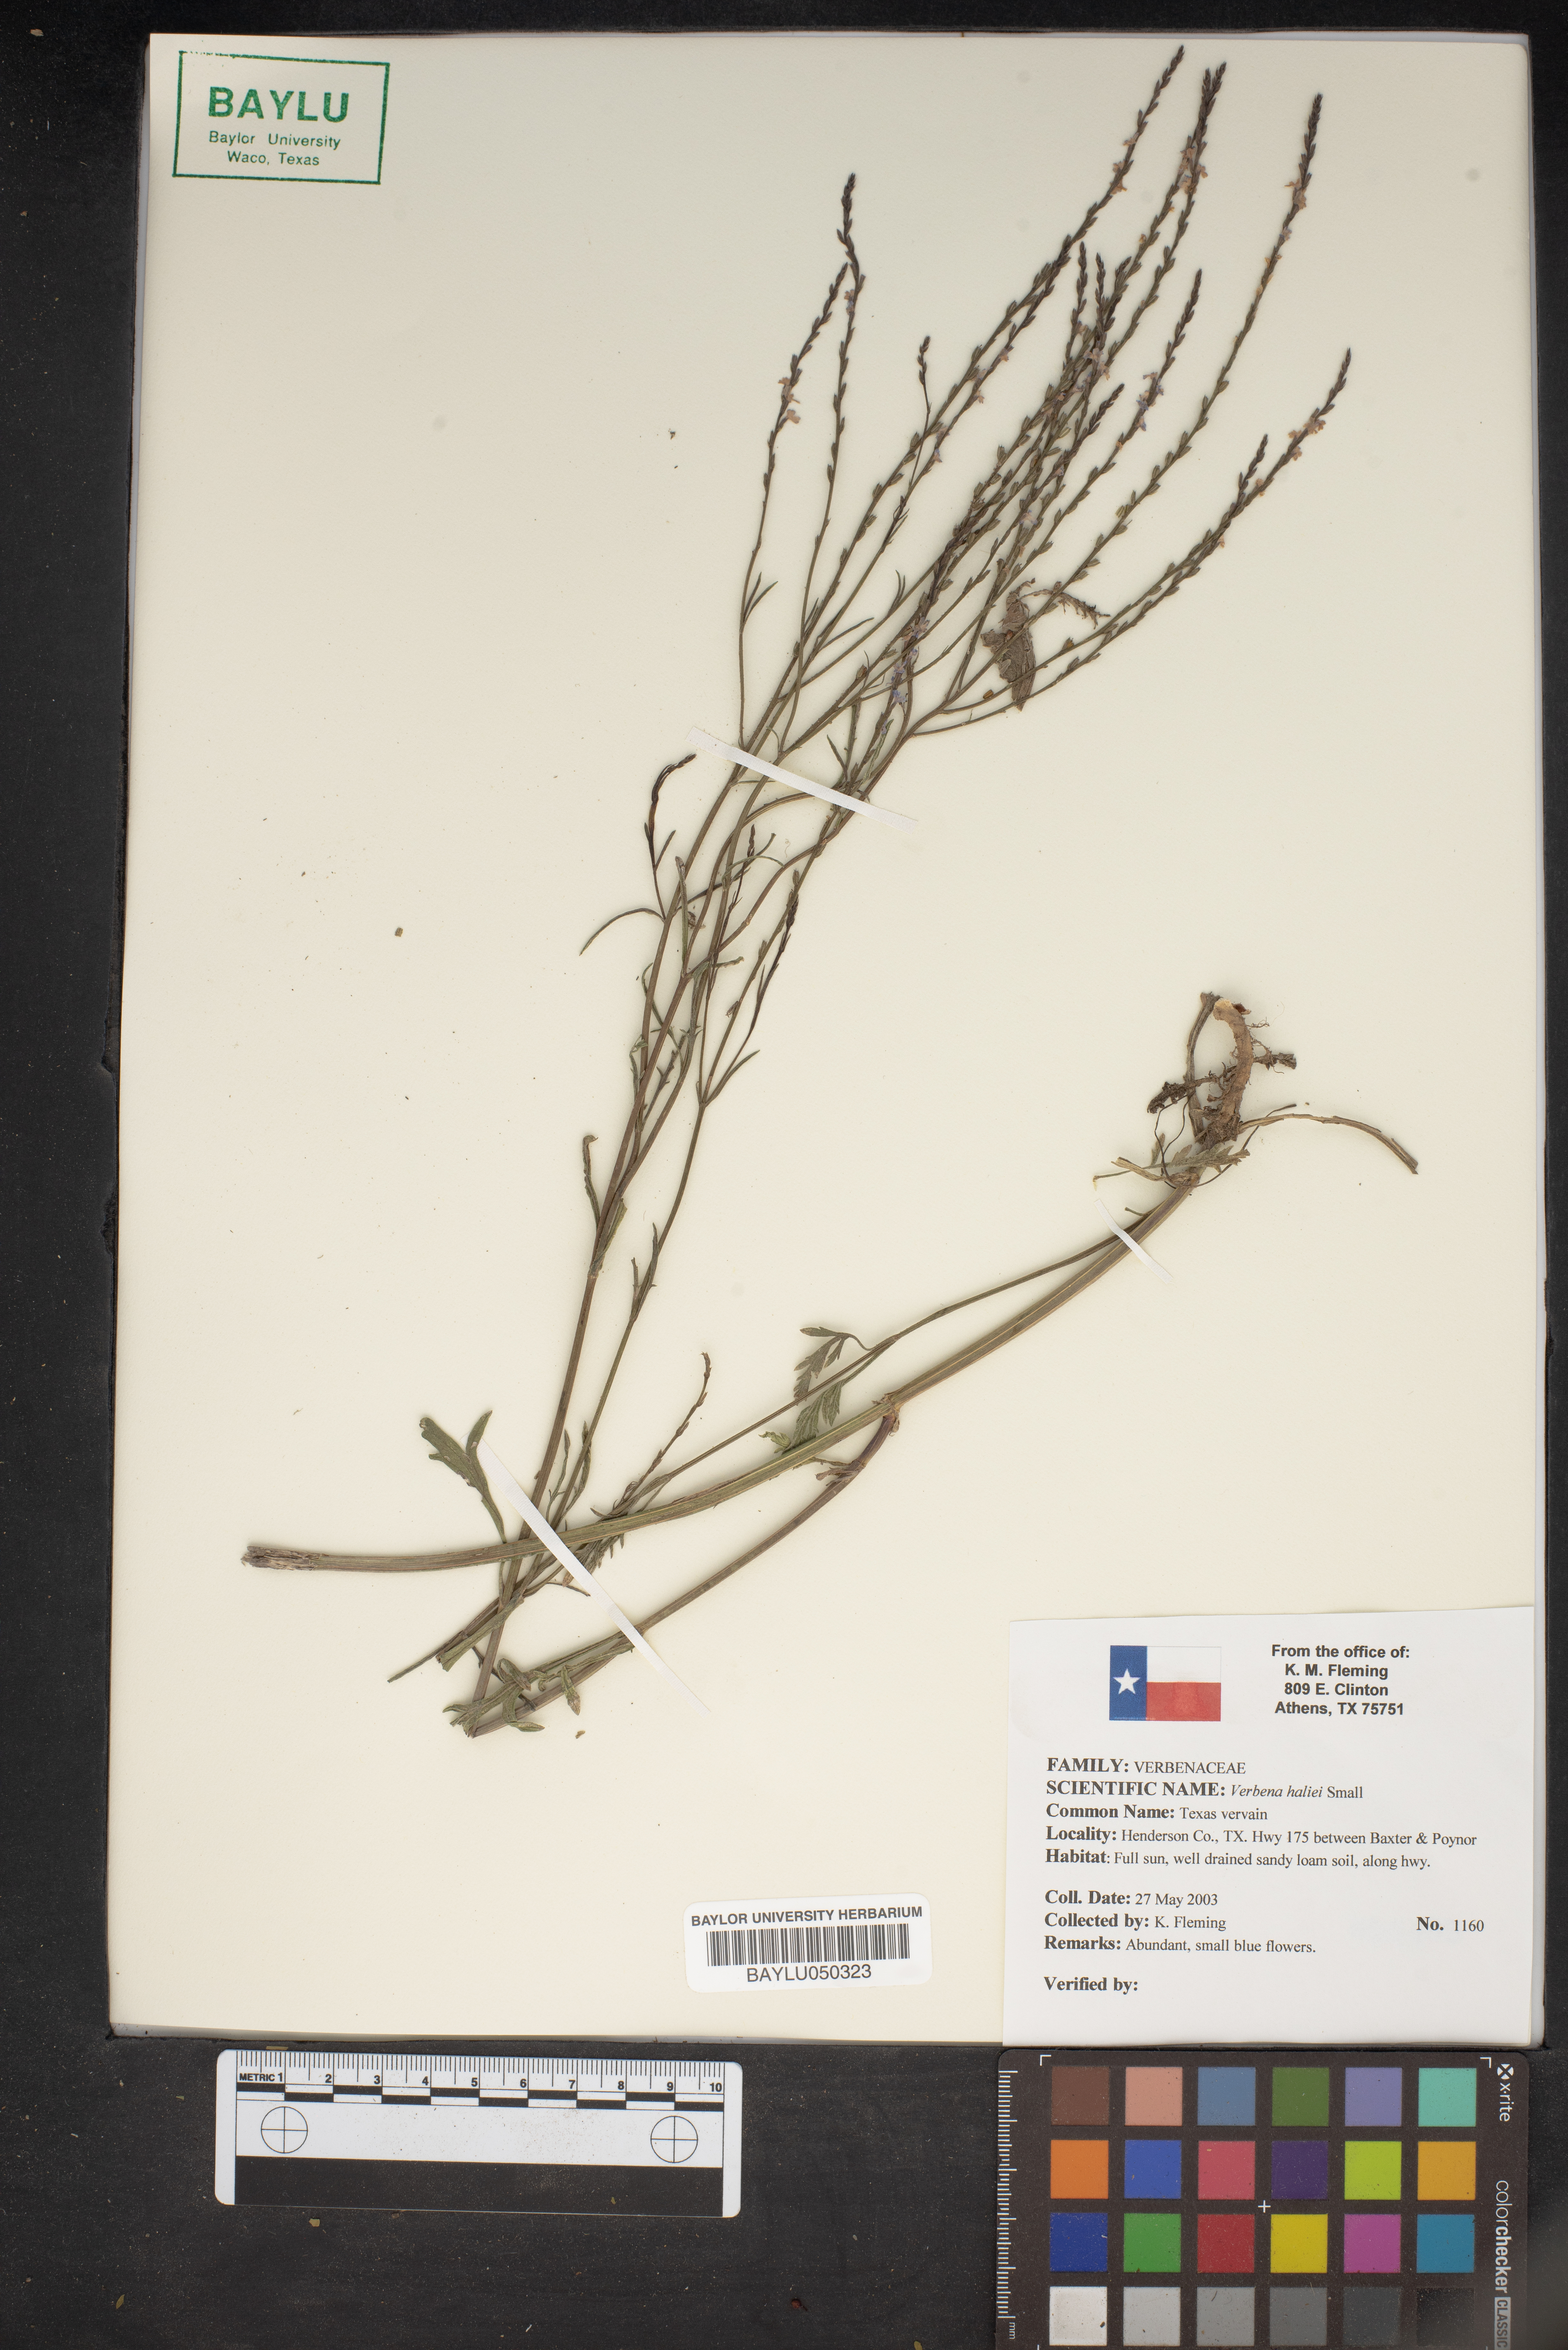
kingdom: Plantae
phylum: Tracheophyta
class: Magnoliopsida
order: Lamiales
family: Verbenaceae
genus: Verbena
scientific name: Verbena halei
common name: Texas vervain
